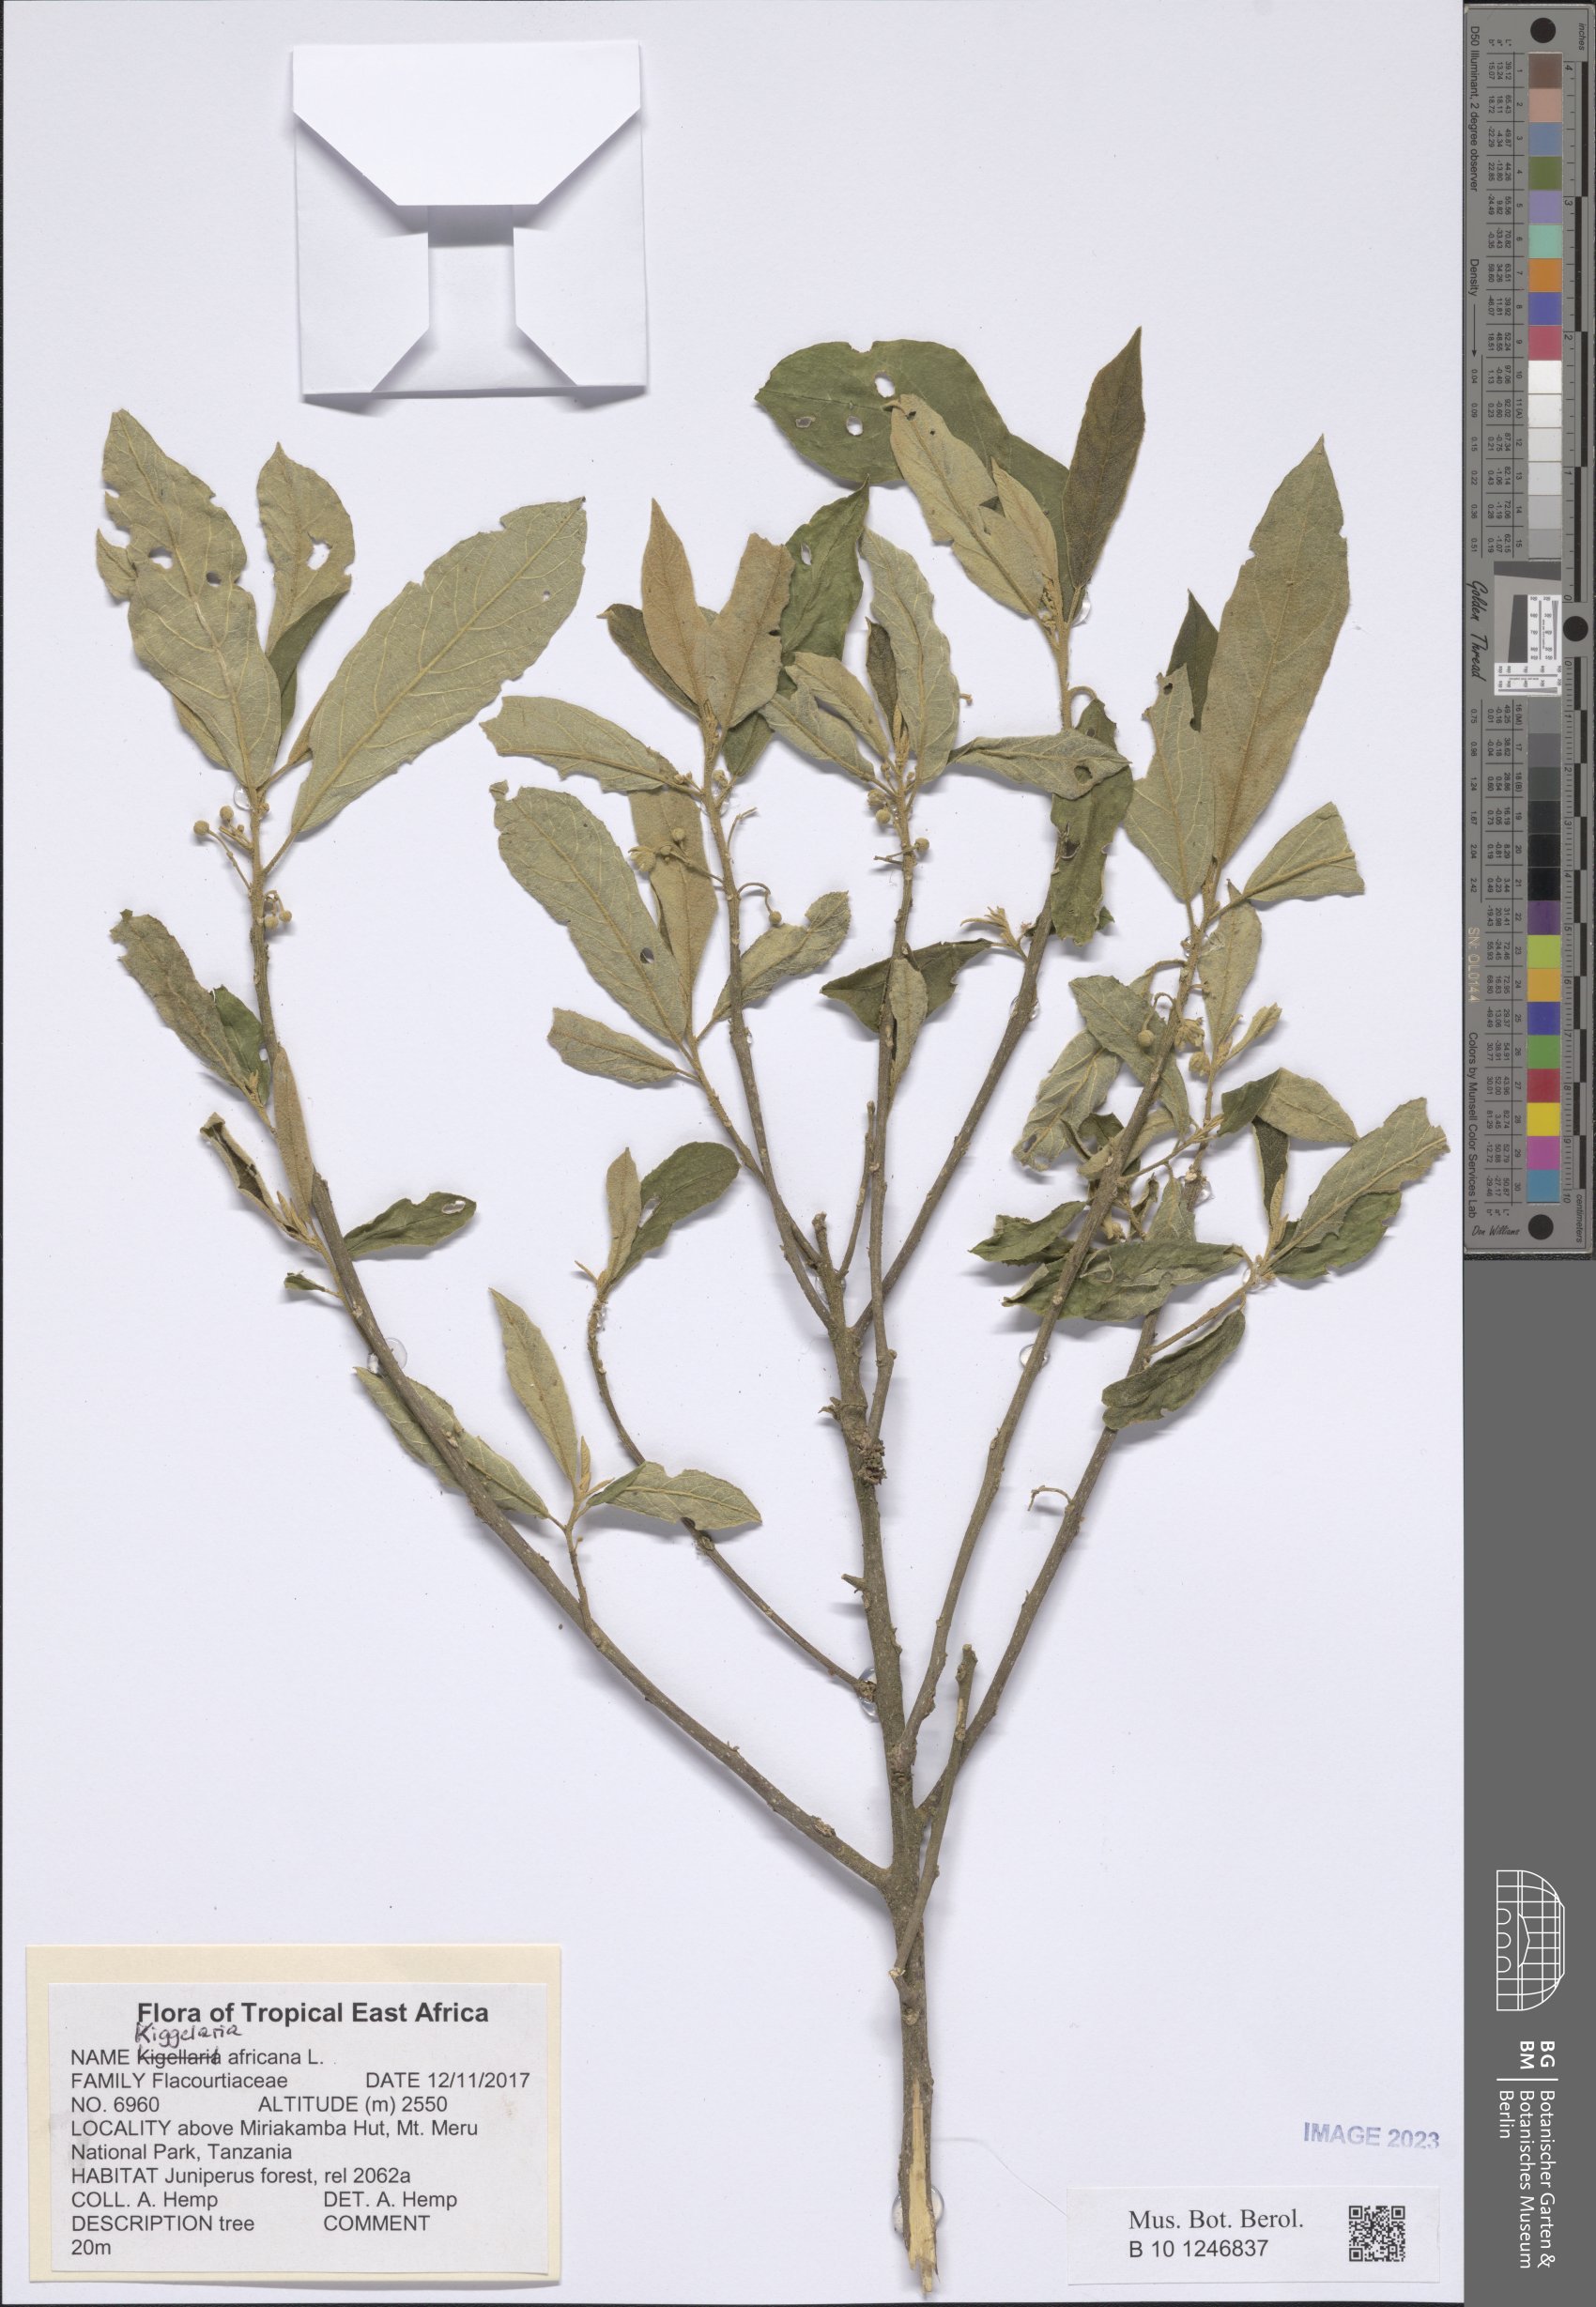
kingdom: Plantae
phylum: Tracheophyta
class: Magnoliopsida
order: Malpighiales
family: Achariaceae
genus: Kiggelaria
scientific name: Kiggelaria africana
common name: Wild peach
